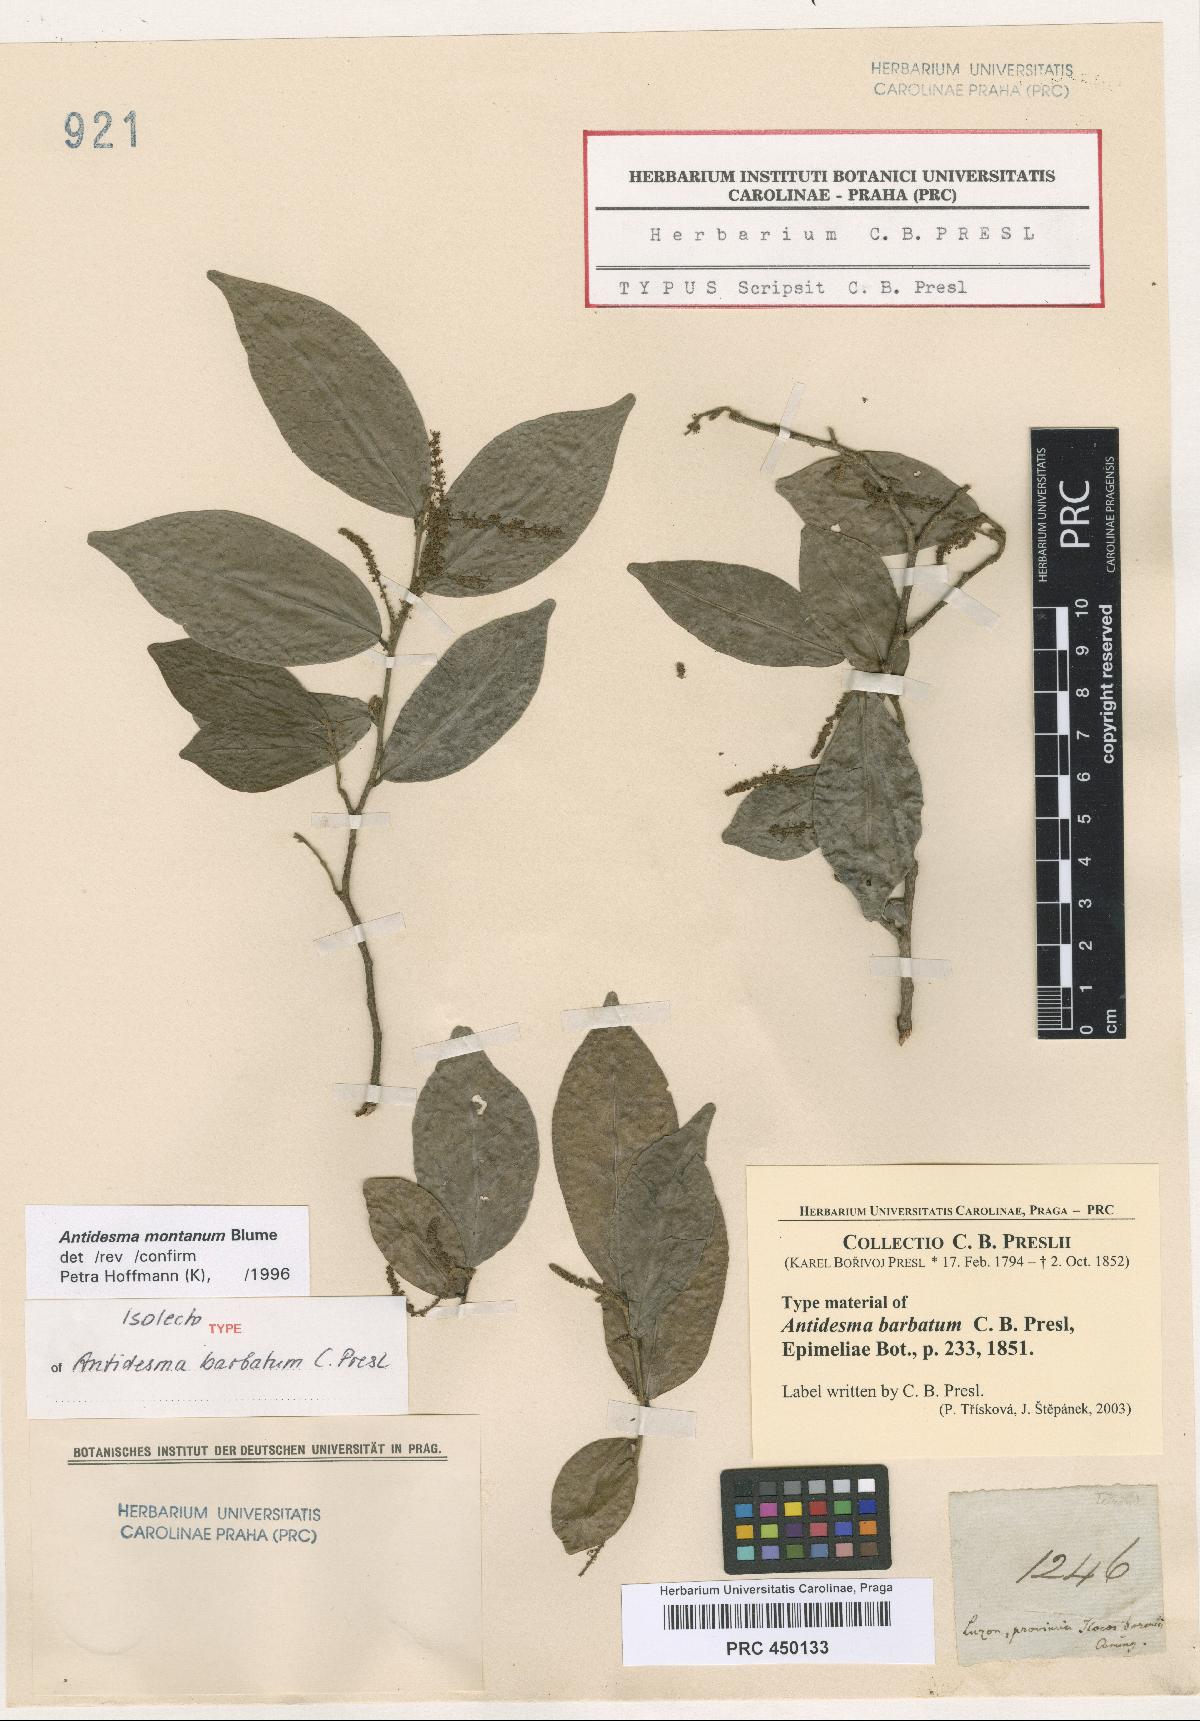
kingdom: Plantae
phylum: Tracheophyta
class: Magnoliopsida
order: Malpighiales
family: Phyllanthaceae
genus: Antidesma
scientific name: Antidesma montanum
